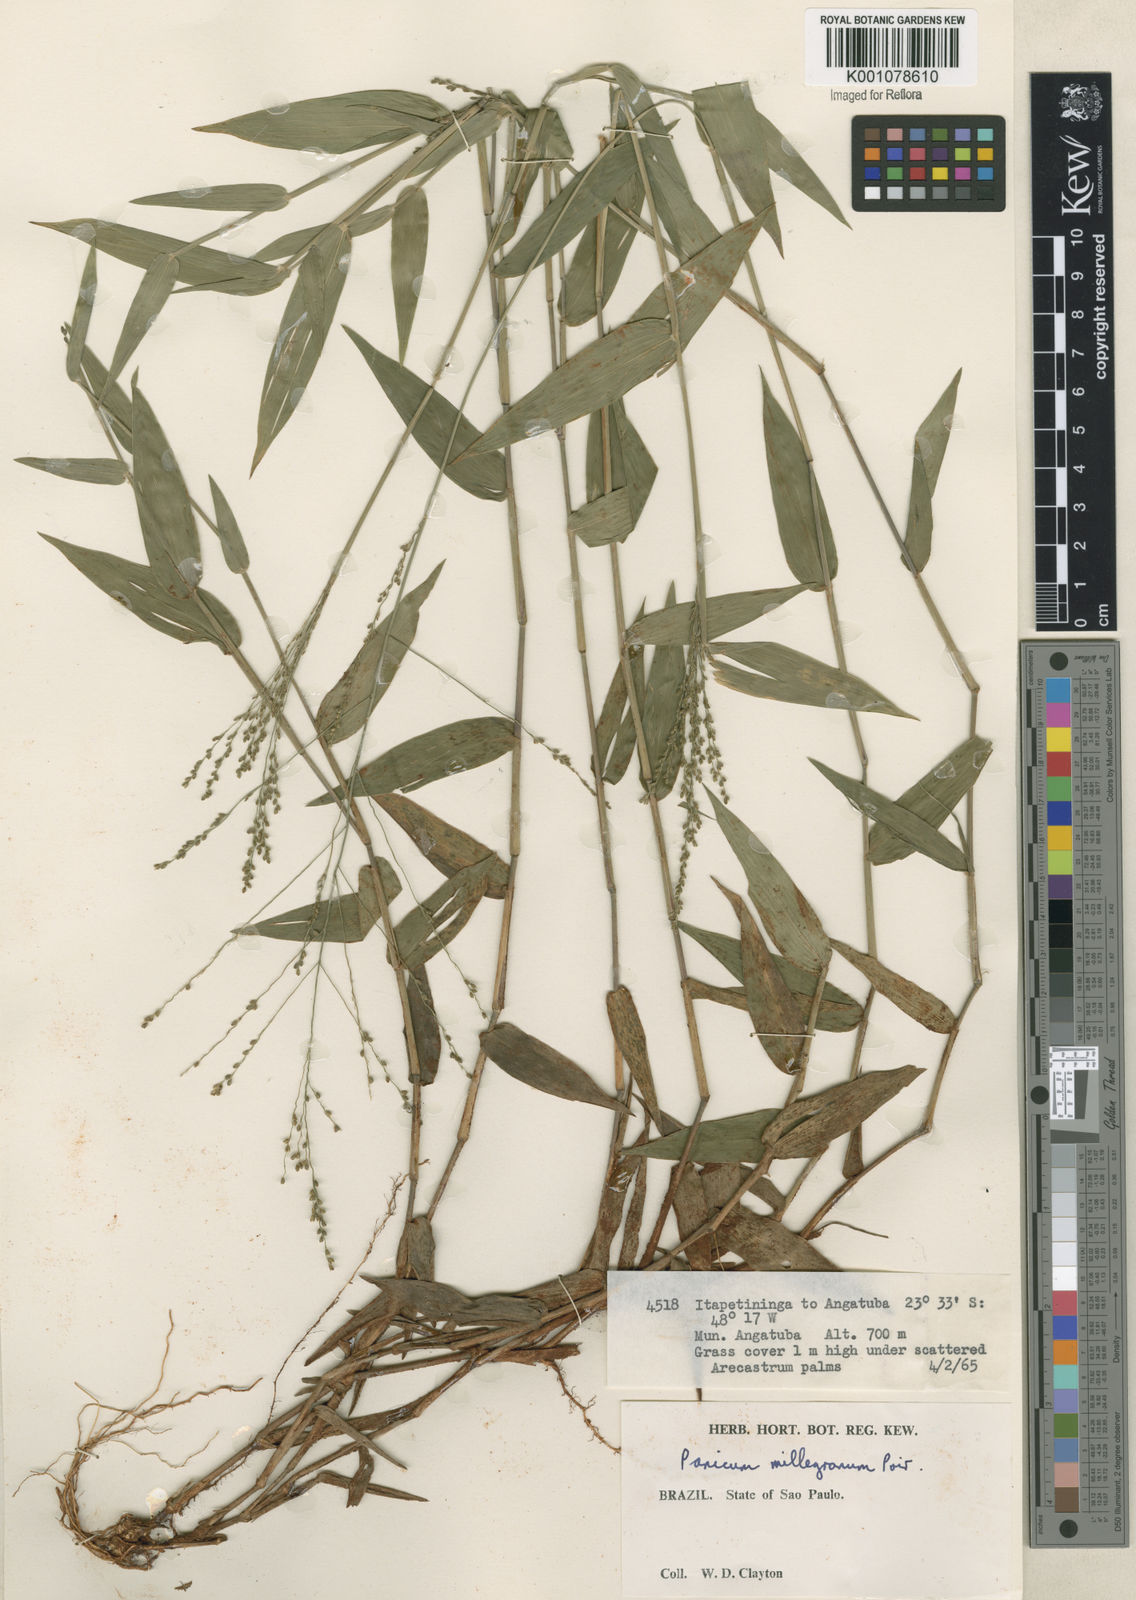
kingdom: Plantae
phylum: Tracheophyta
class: Liliopsida
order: Poales
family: Poaceae
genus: Panicum
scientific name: Panicum sellowii
